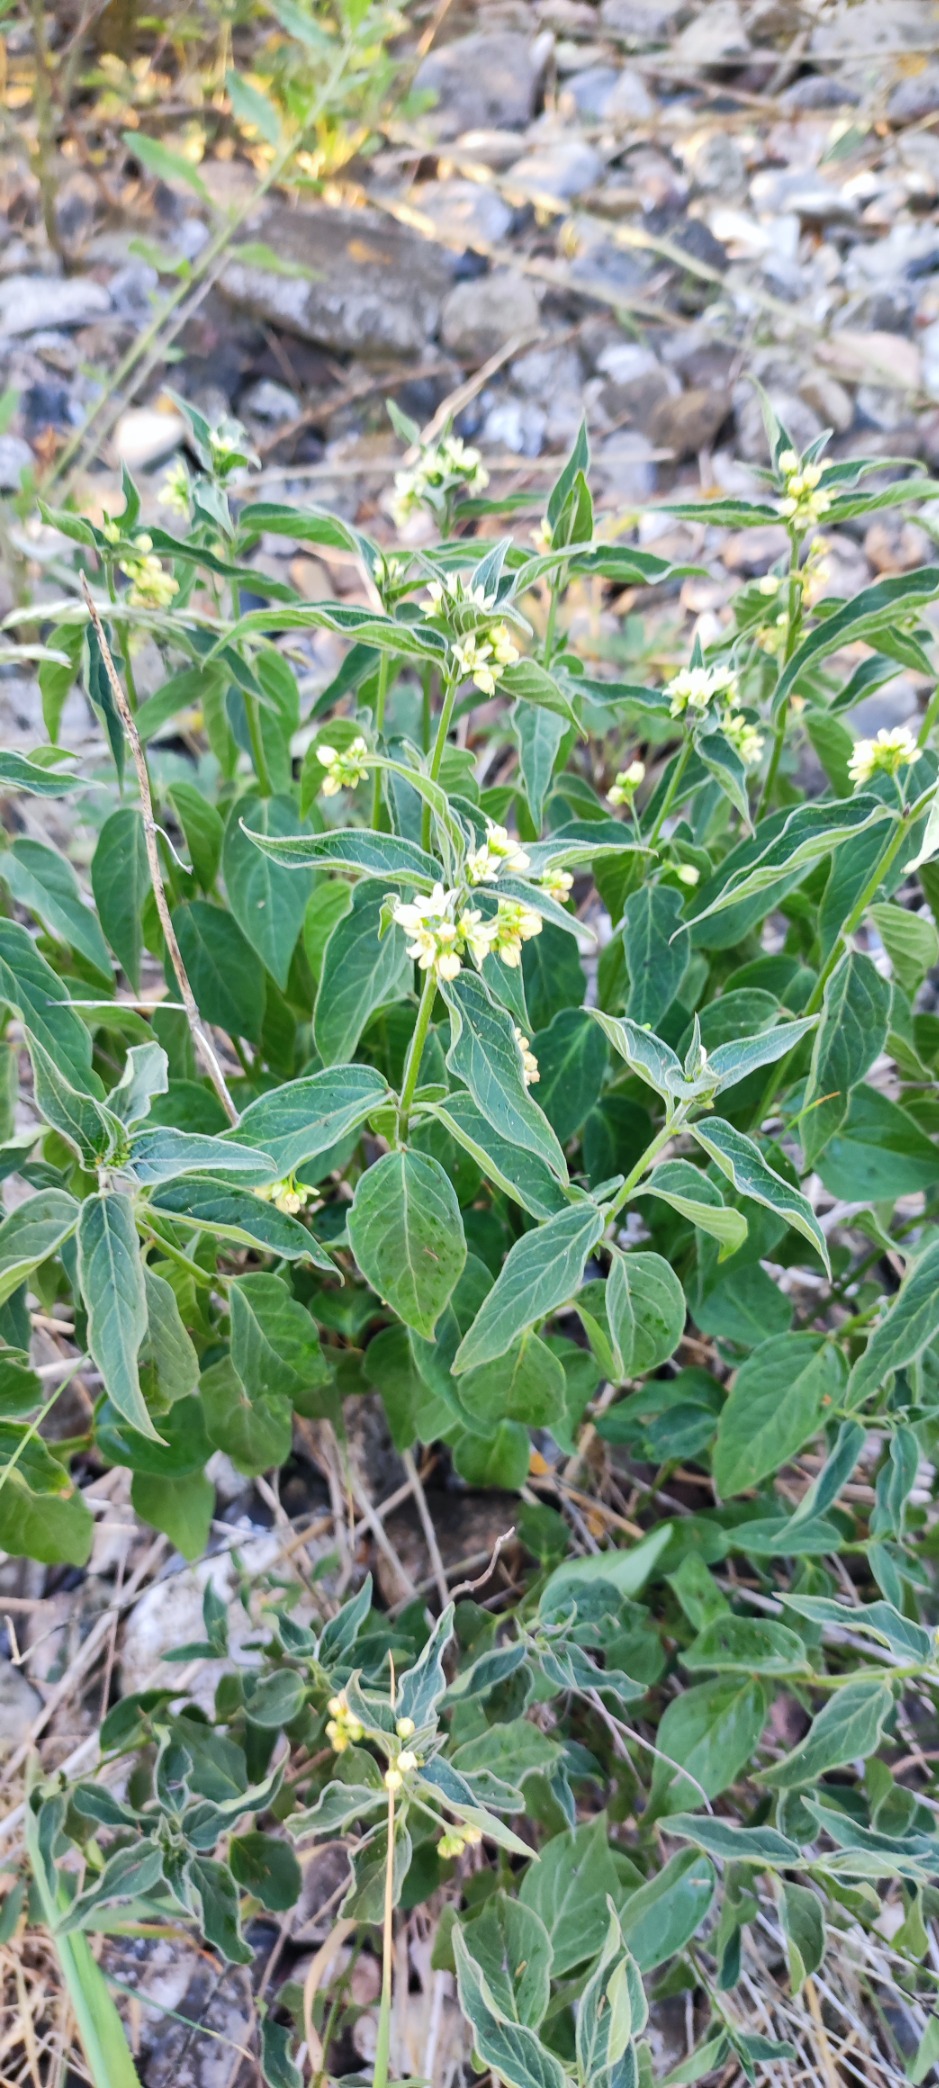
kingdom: Plantae
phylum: Tracheophyta
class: Magnoliopsida
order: Gentianales
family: Apocynaceae
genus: Vincetoxicum
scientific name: Vincetoxicum hirundinaria
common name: Svalerod
